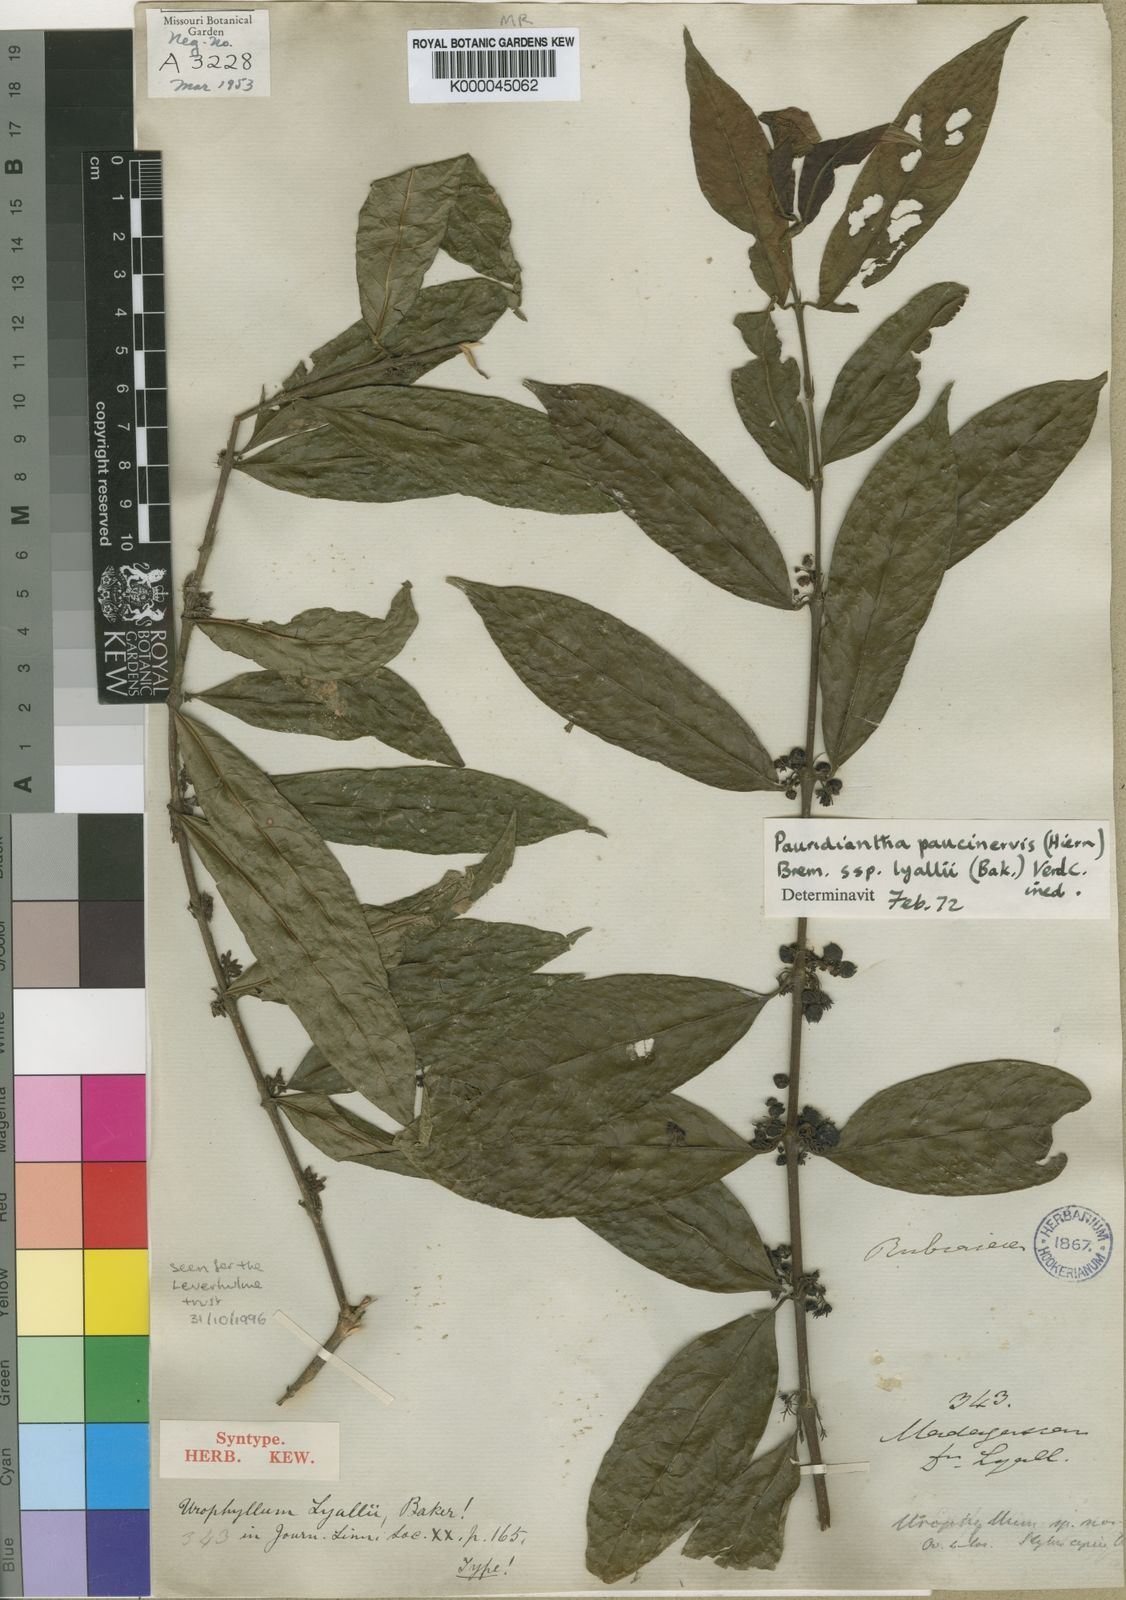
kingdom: Plantae
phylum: Tracheophyta
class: Magnoliopsida
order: Gentianales
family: Rubiaceae
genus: Pauridiantha
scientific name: Pauridiantha paucinervis
